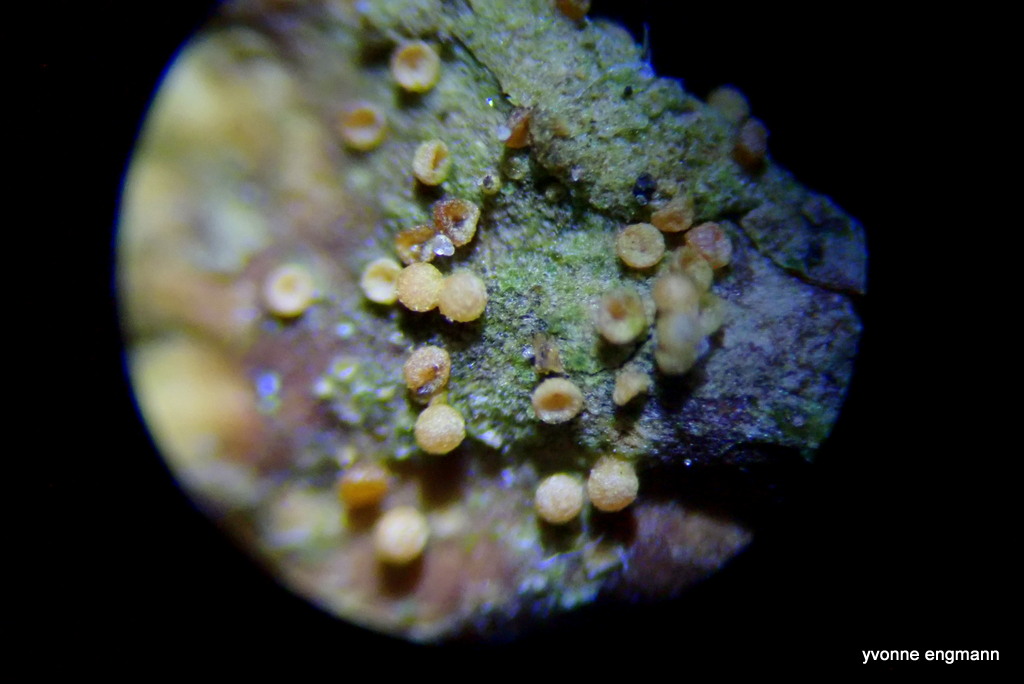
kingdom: Fungi
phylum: Ascomycota
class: Sordariomycetes
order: Hypocreales
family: Bionectriaceae
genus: Nectriopsis
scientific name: Nectriopsis lecanodes
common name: skjoldlav-gyldenkerne
